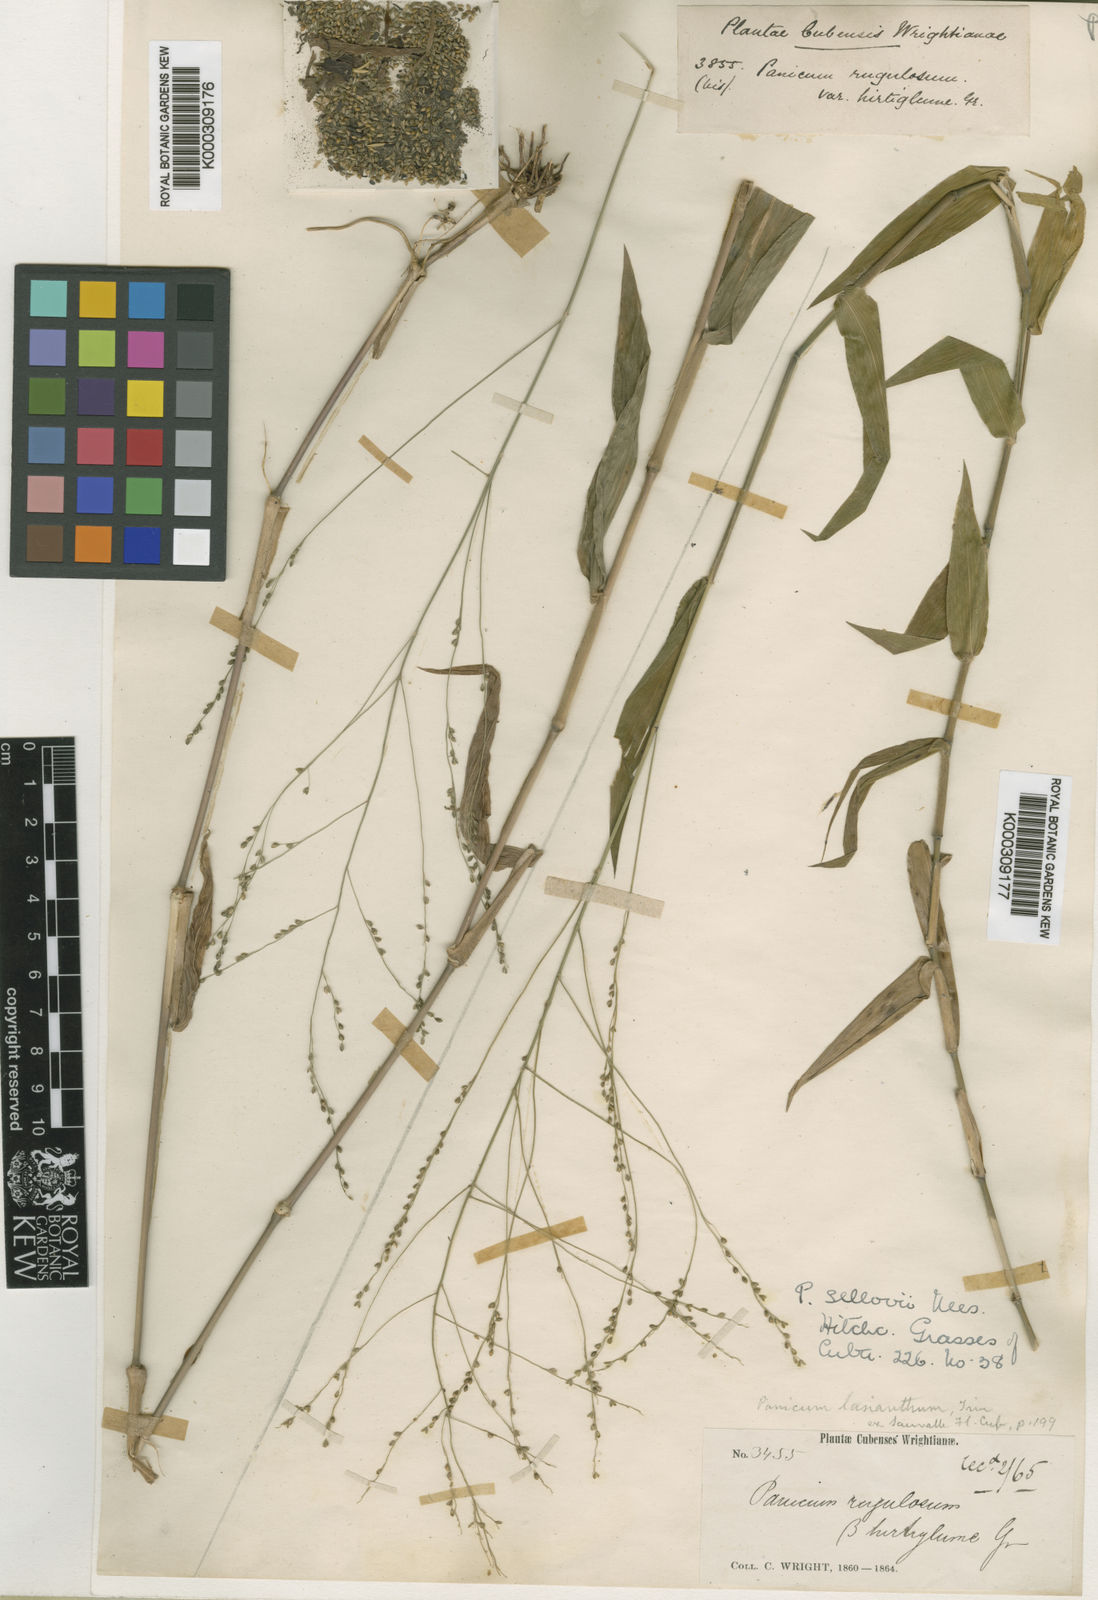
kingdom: Plantae
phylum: Tracheophyta
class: Liliopsida
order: Poales
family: Poaceae
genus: Panicum
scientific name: Panicum sellowii
